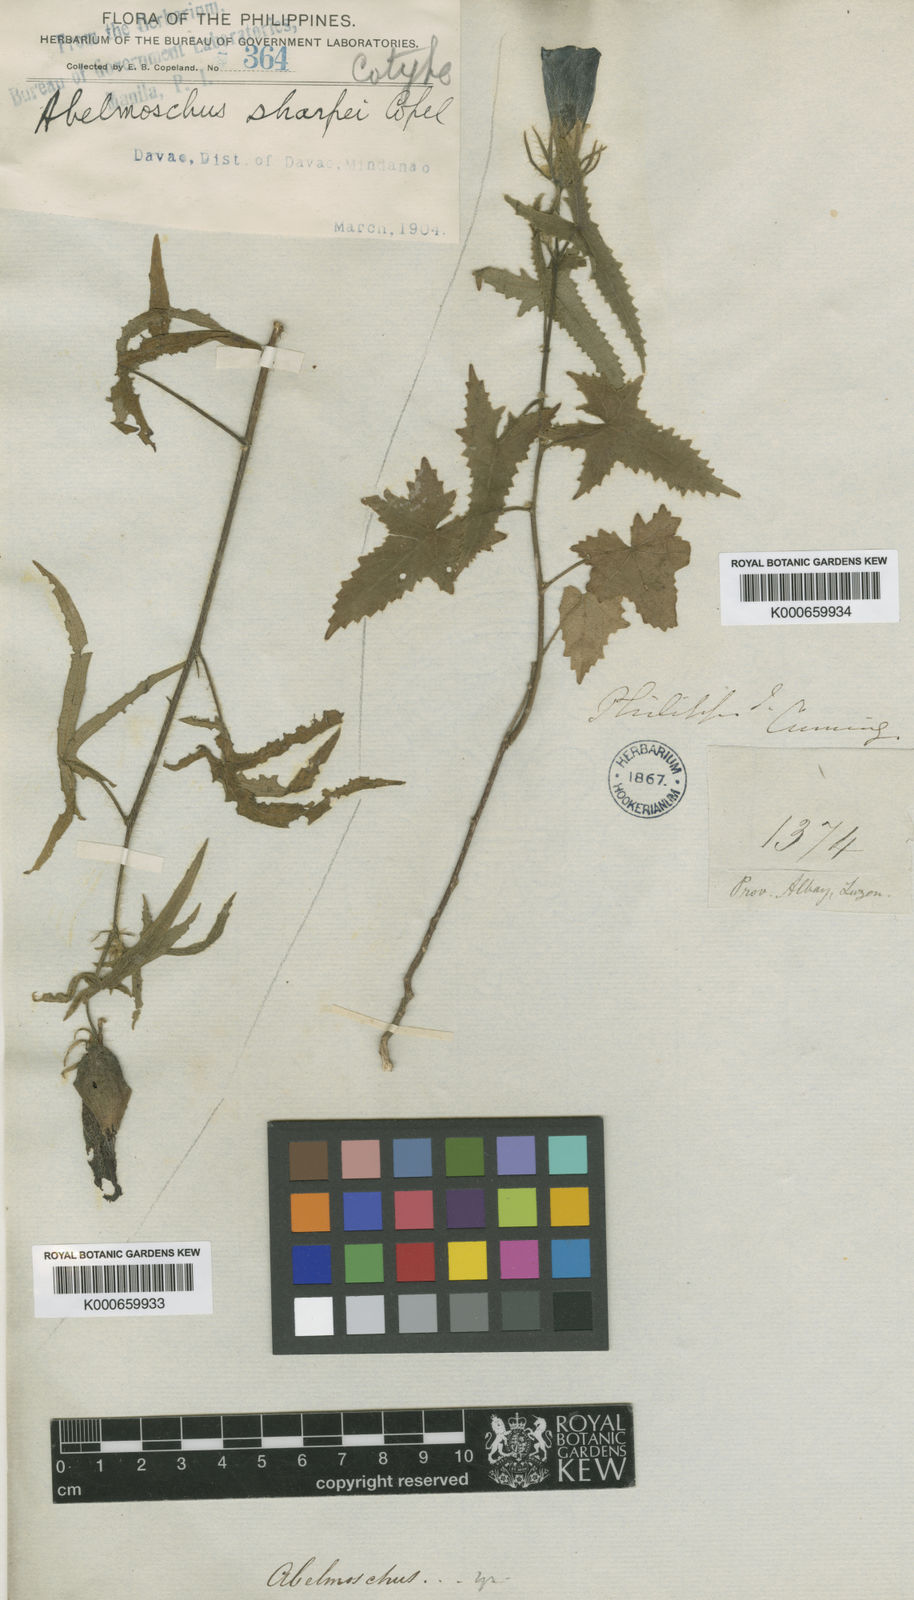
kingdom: Plantae
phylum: Tracheophyta
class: Magnoliopsida
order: Malvales
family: Malvaceae
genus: Abelmoschus
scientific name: Abelmoschus sagittifolius
